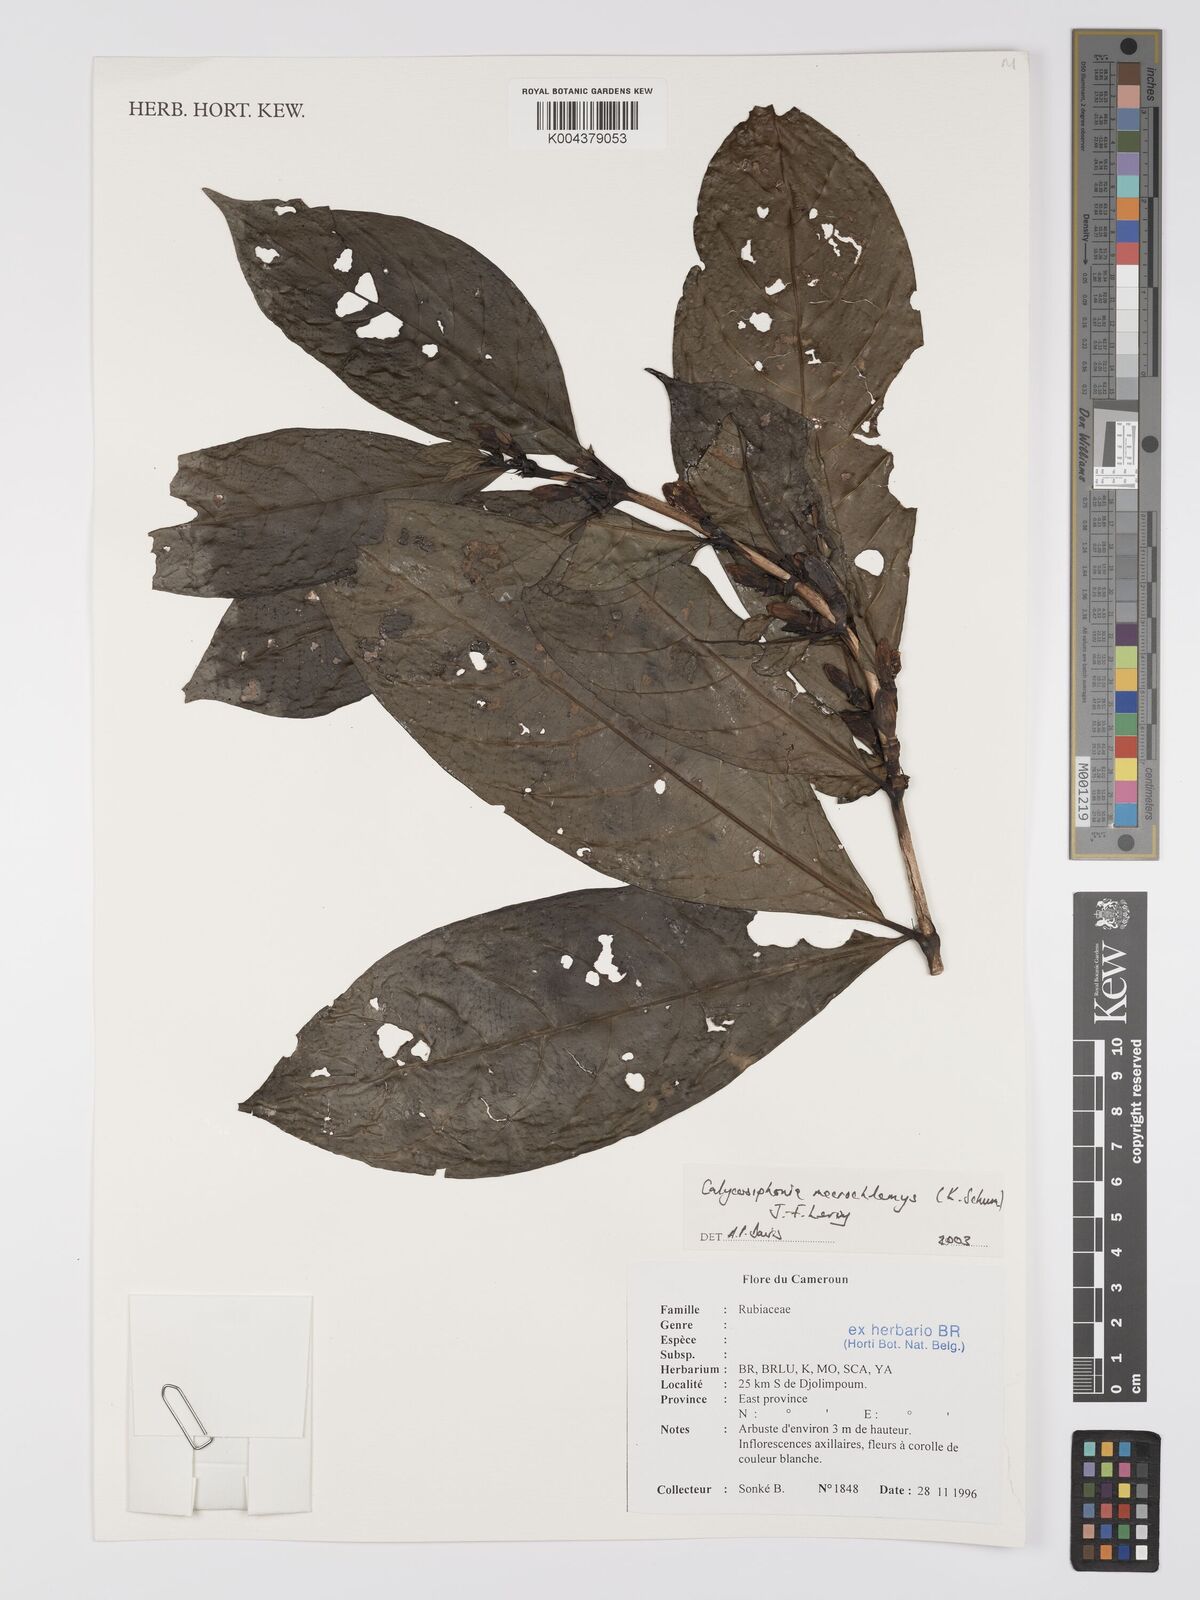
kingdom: Plantae
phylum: Tracheophyta
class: Magnoliopsida
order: Gentianales
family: Rubiaceae
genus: Calycosiphonia
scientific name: Calycosiphonia macrochlamys
